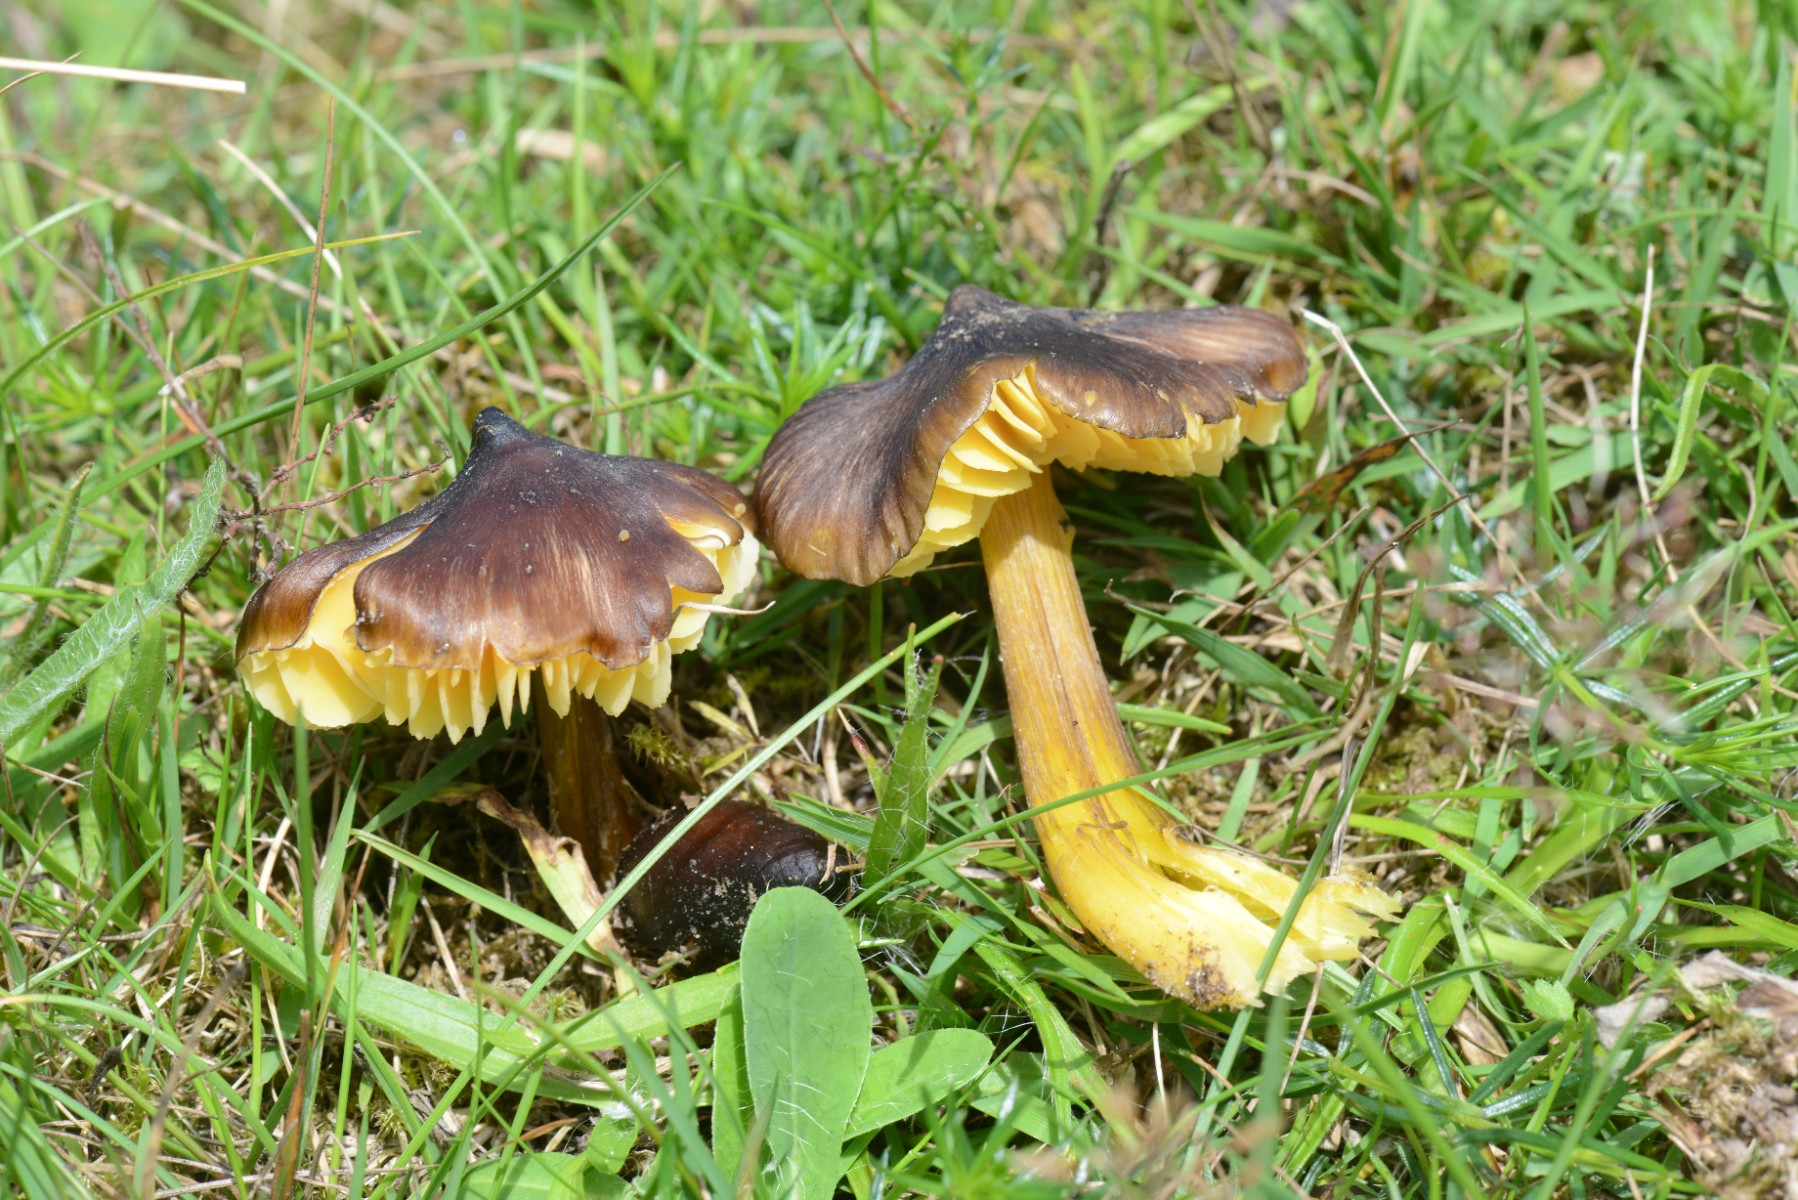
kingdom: Fungi
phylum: Basidiomycota
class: Agaricomycetes
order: Agaricales
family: Hygrophoraceae
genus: Hygrocybe
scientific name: Hygrocybe spadicea
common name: daddelbrun vokshat
